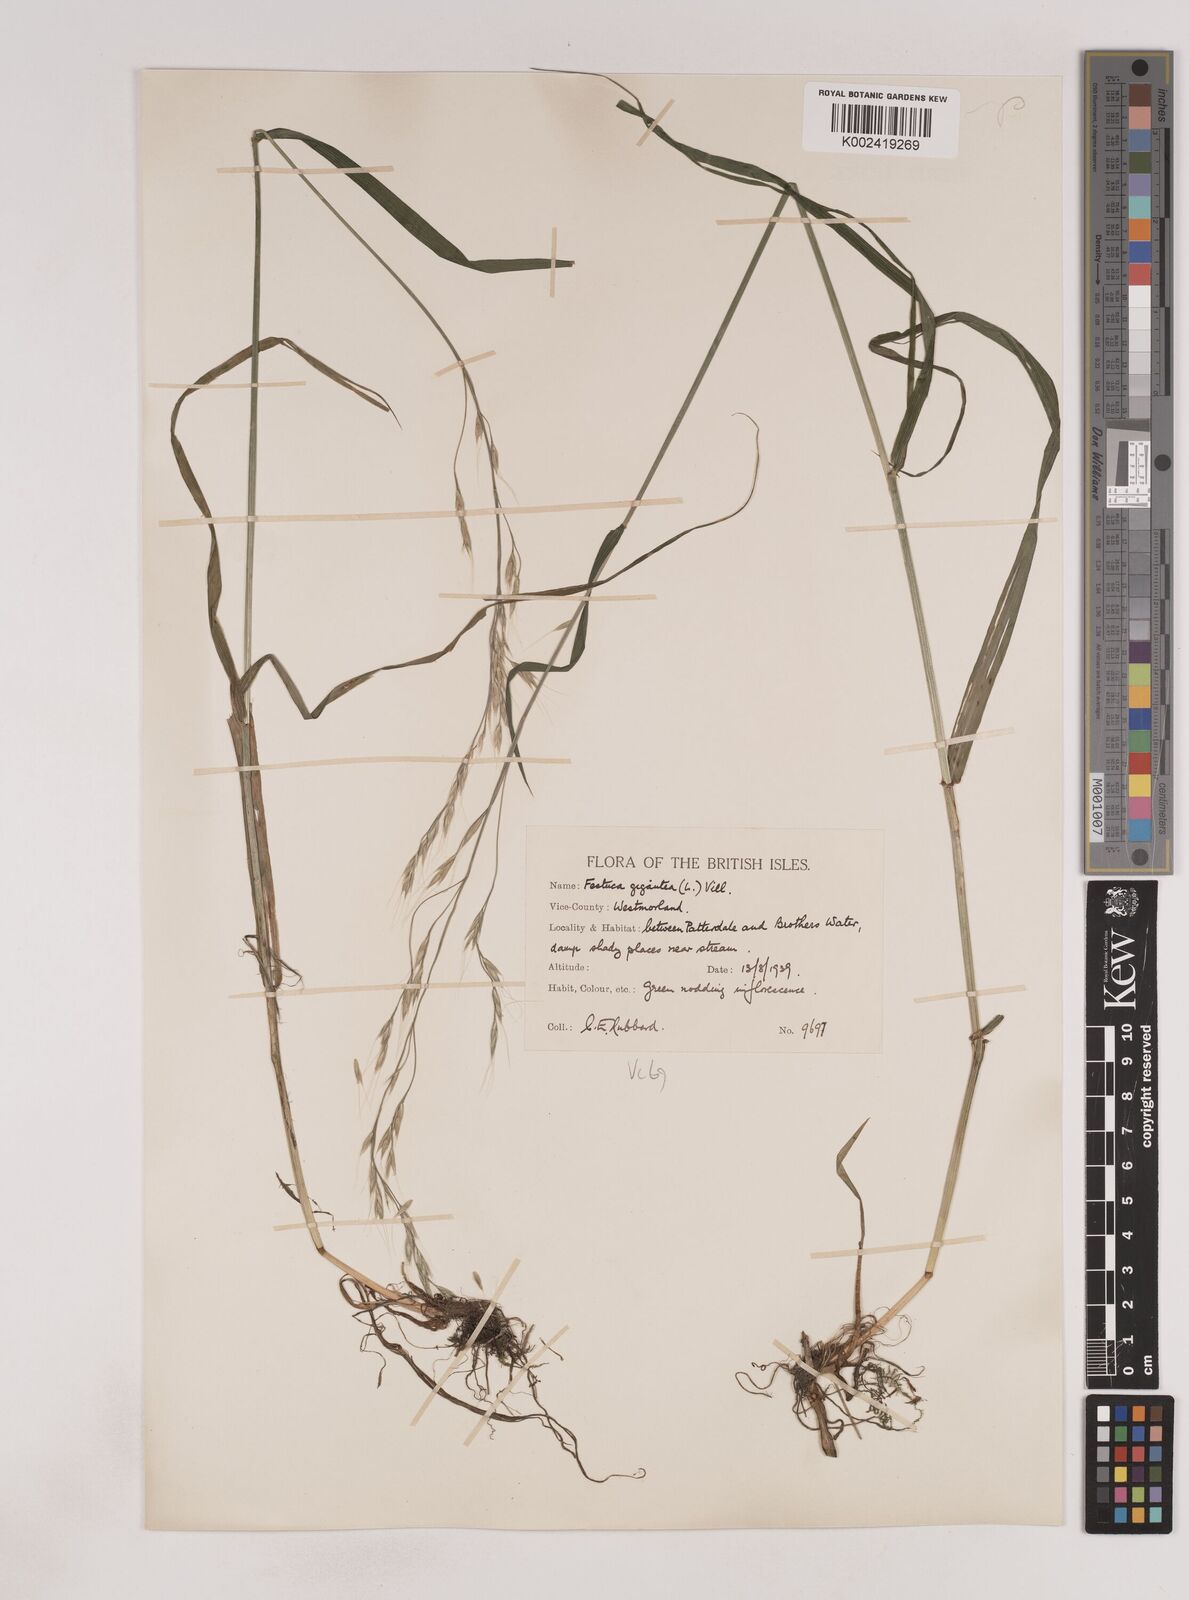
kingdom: Plantae
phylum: Tracheophyta
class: Liliopsida
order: Poales
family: Poaceae
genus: Lolium
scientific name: Lolium giganteum
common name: Giant fescue
